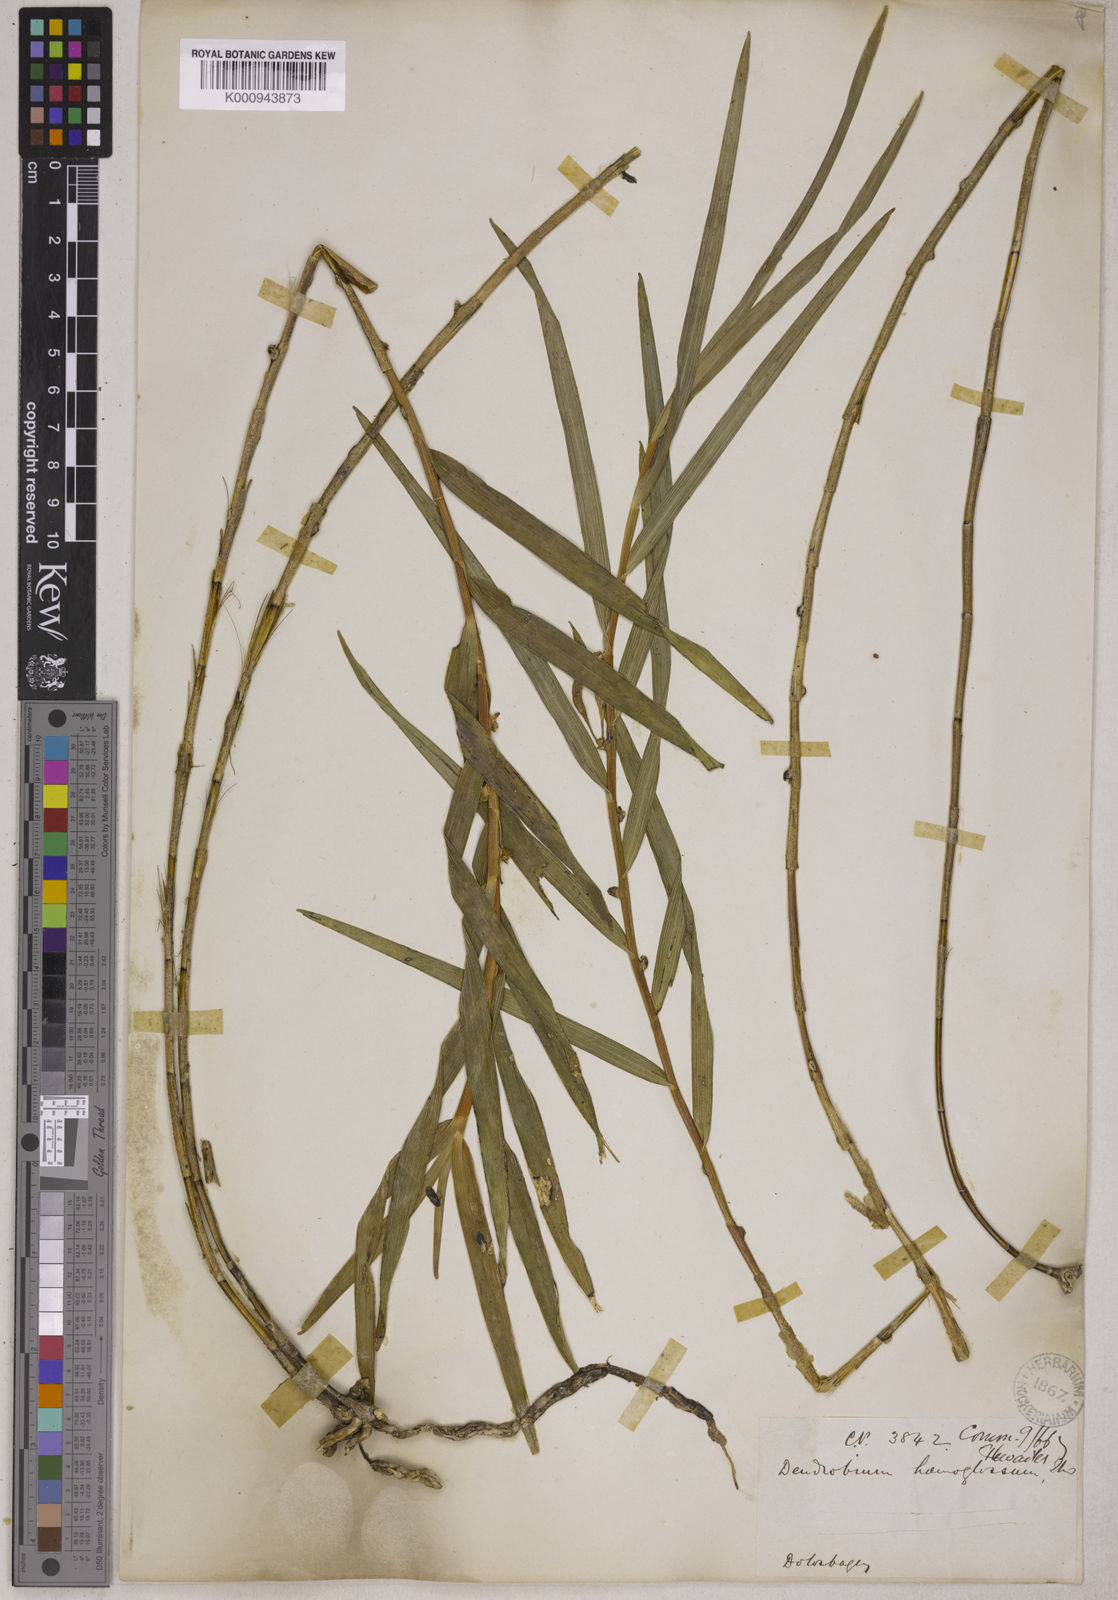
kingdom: Plantae
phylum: Tracheophyta
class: Liliopsida
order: Asparagales
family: Orchidaceae
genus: Dendrobium
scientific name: Dendrobium salaccense
